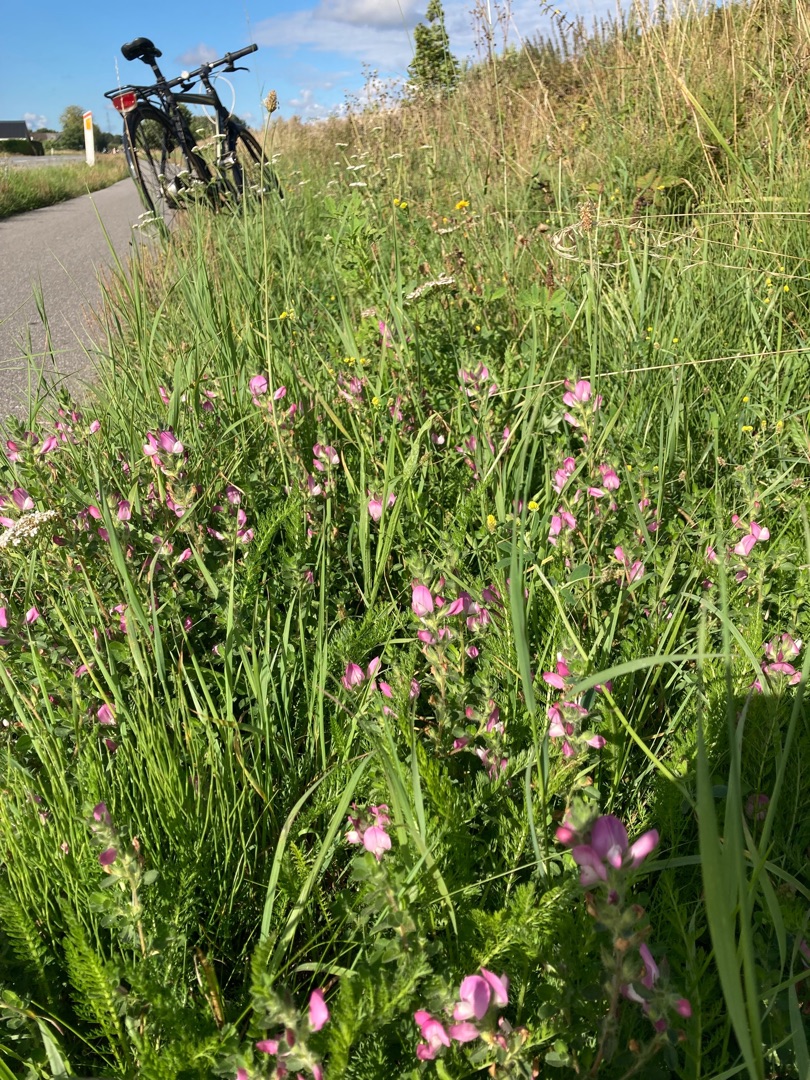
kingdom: Plantae
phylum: Tracheophyta
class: Magnoliopsida
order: Fabales
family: Fabaceae
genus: Ononis
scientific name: Ononis spinosa
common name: Mark-krageklo
